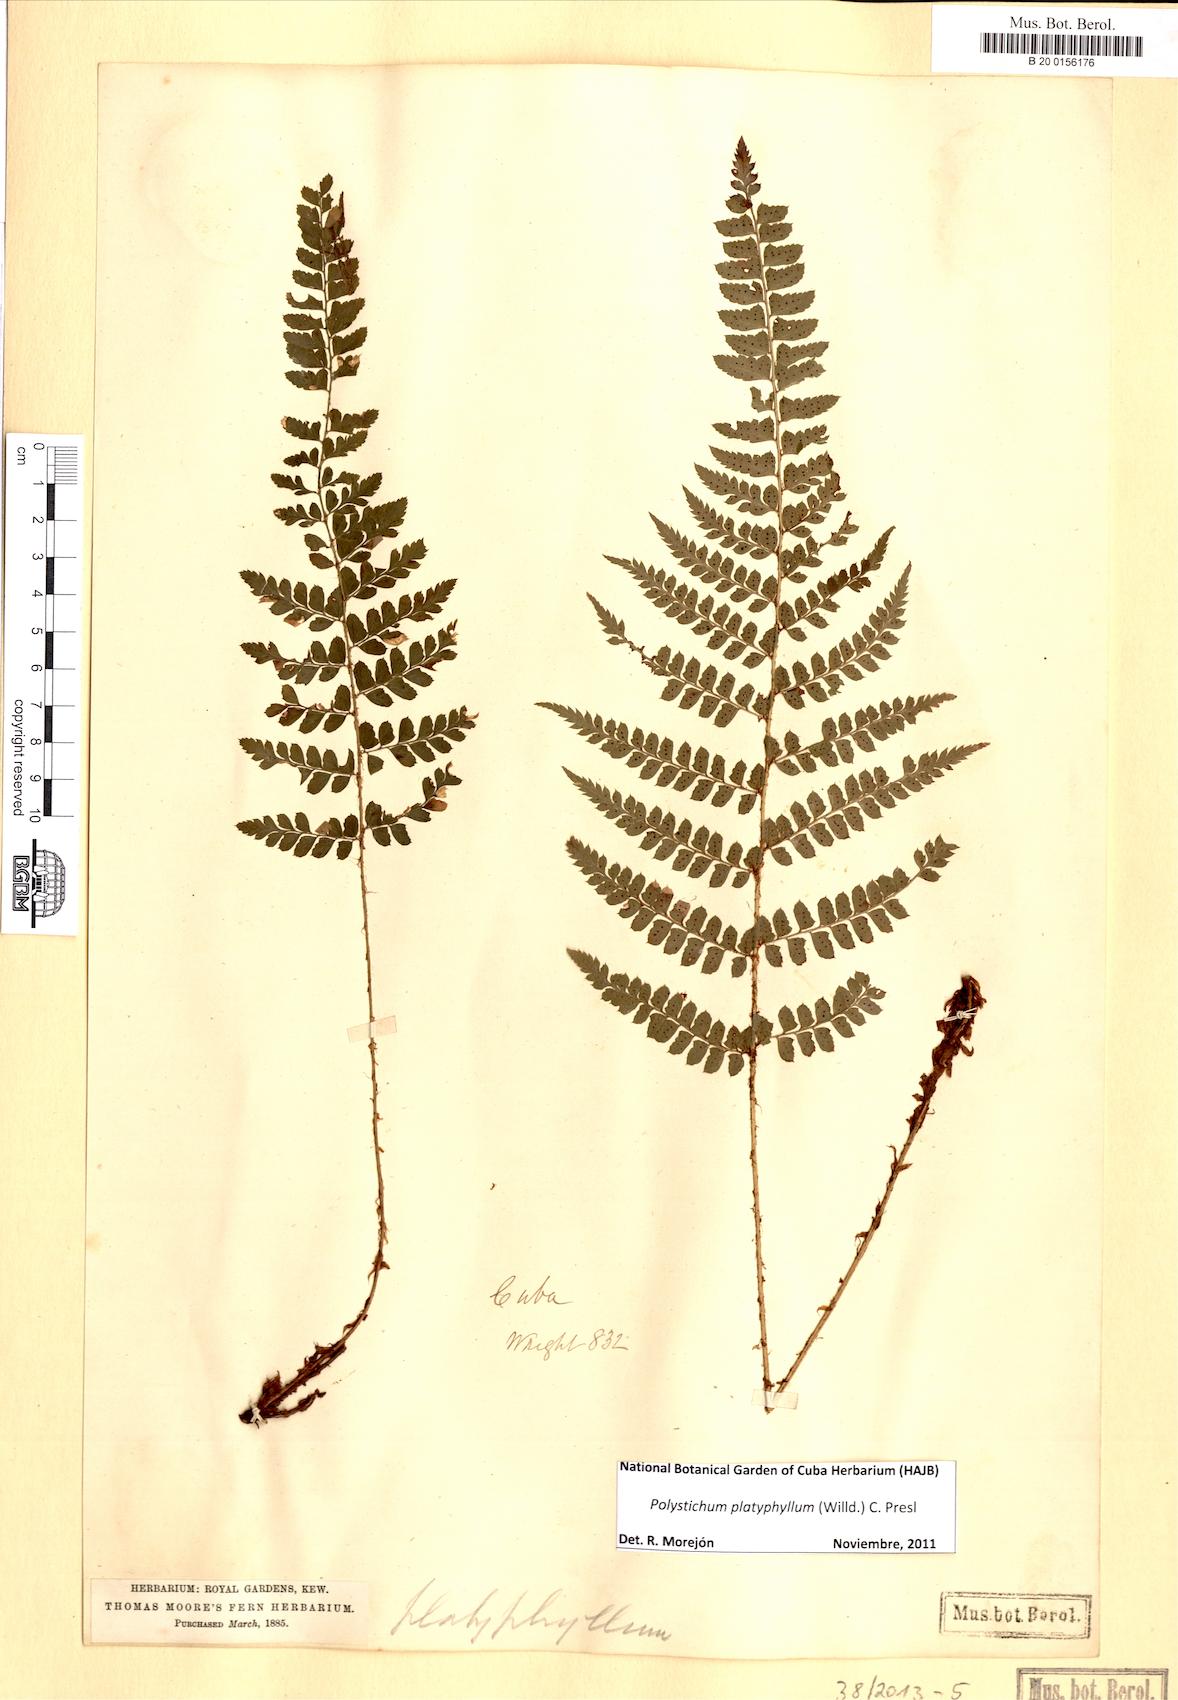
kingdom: Plantae
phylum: Tracheophyta
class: Polypodiopsida
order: Polypodiales
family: Dryopteridaceae
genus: Polystichum
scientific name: Polystichum platyphyllum
